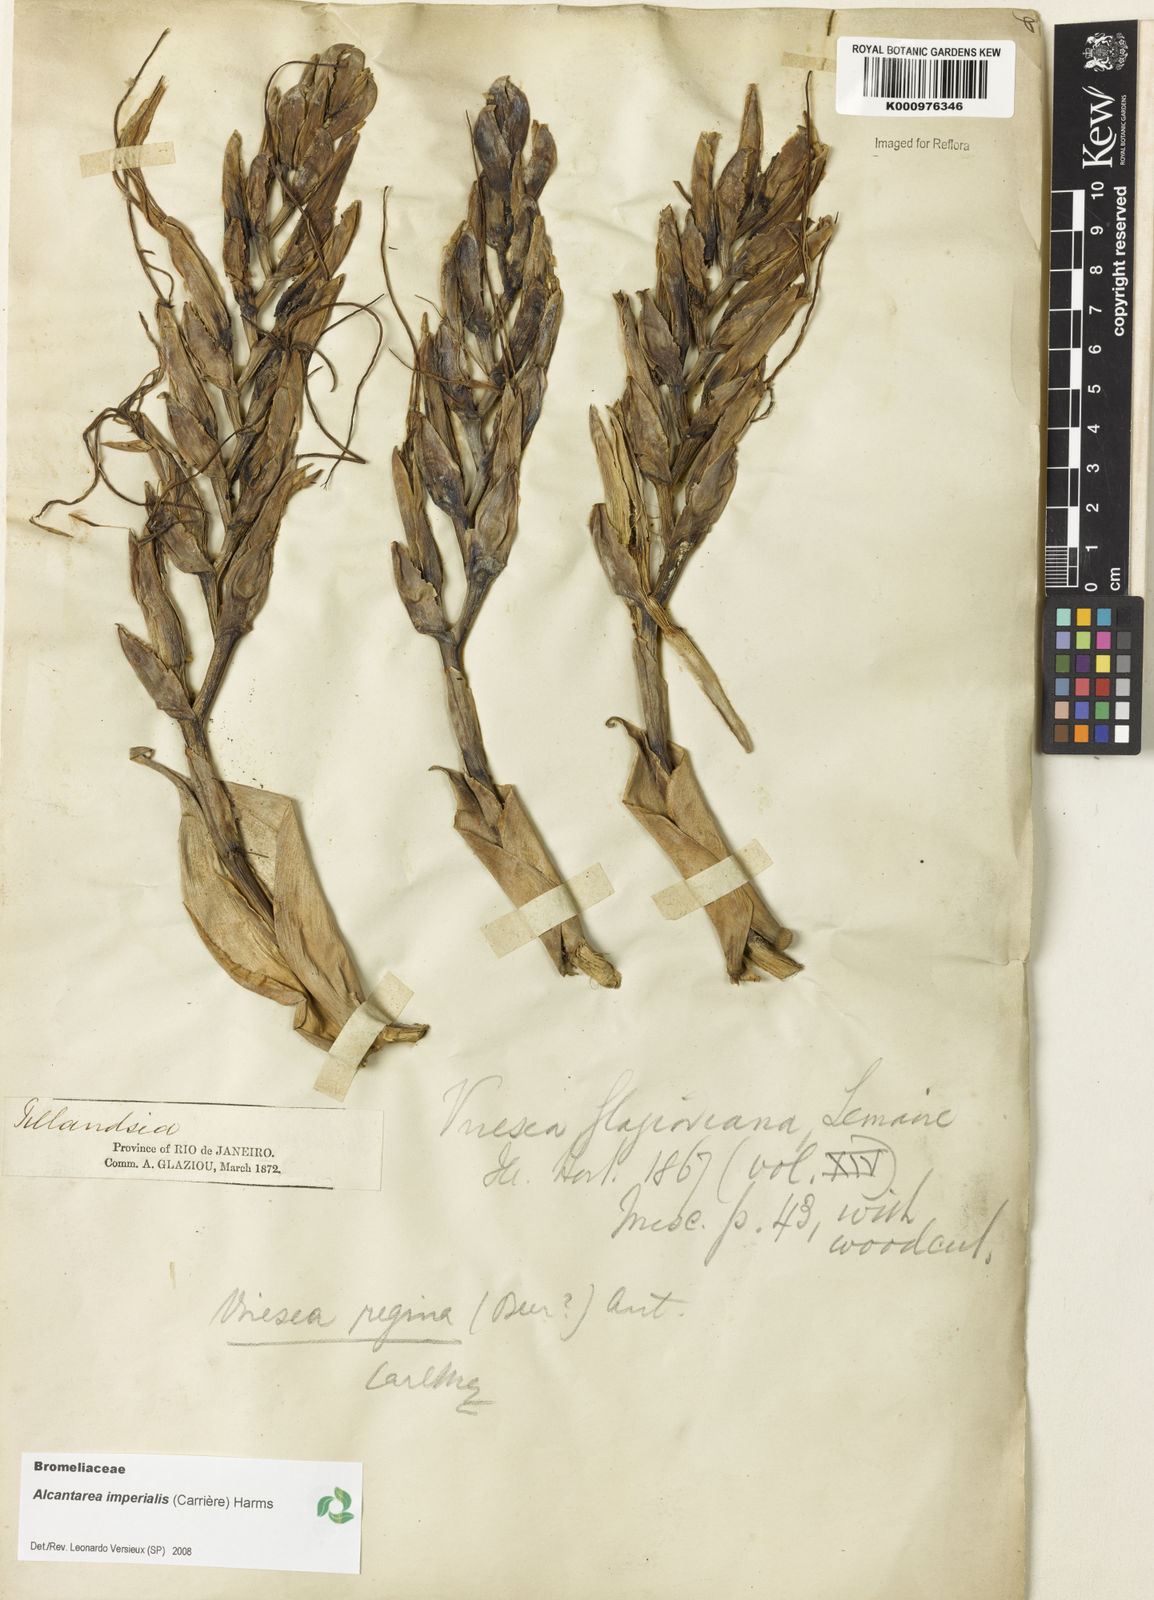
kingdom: Plantae
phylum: Tracheophyta
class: Liliopsida
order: Poales
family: Bromeliaceae
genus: Vriesea
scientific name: Vriesea
